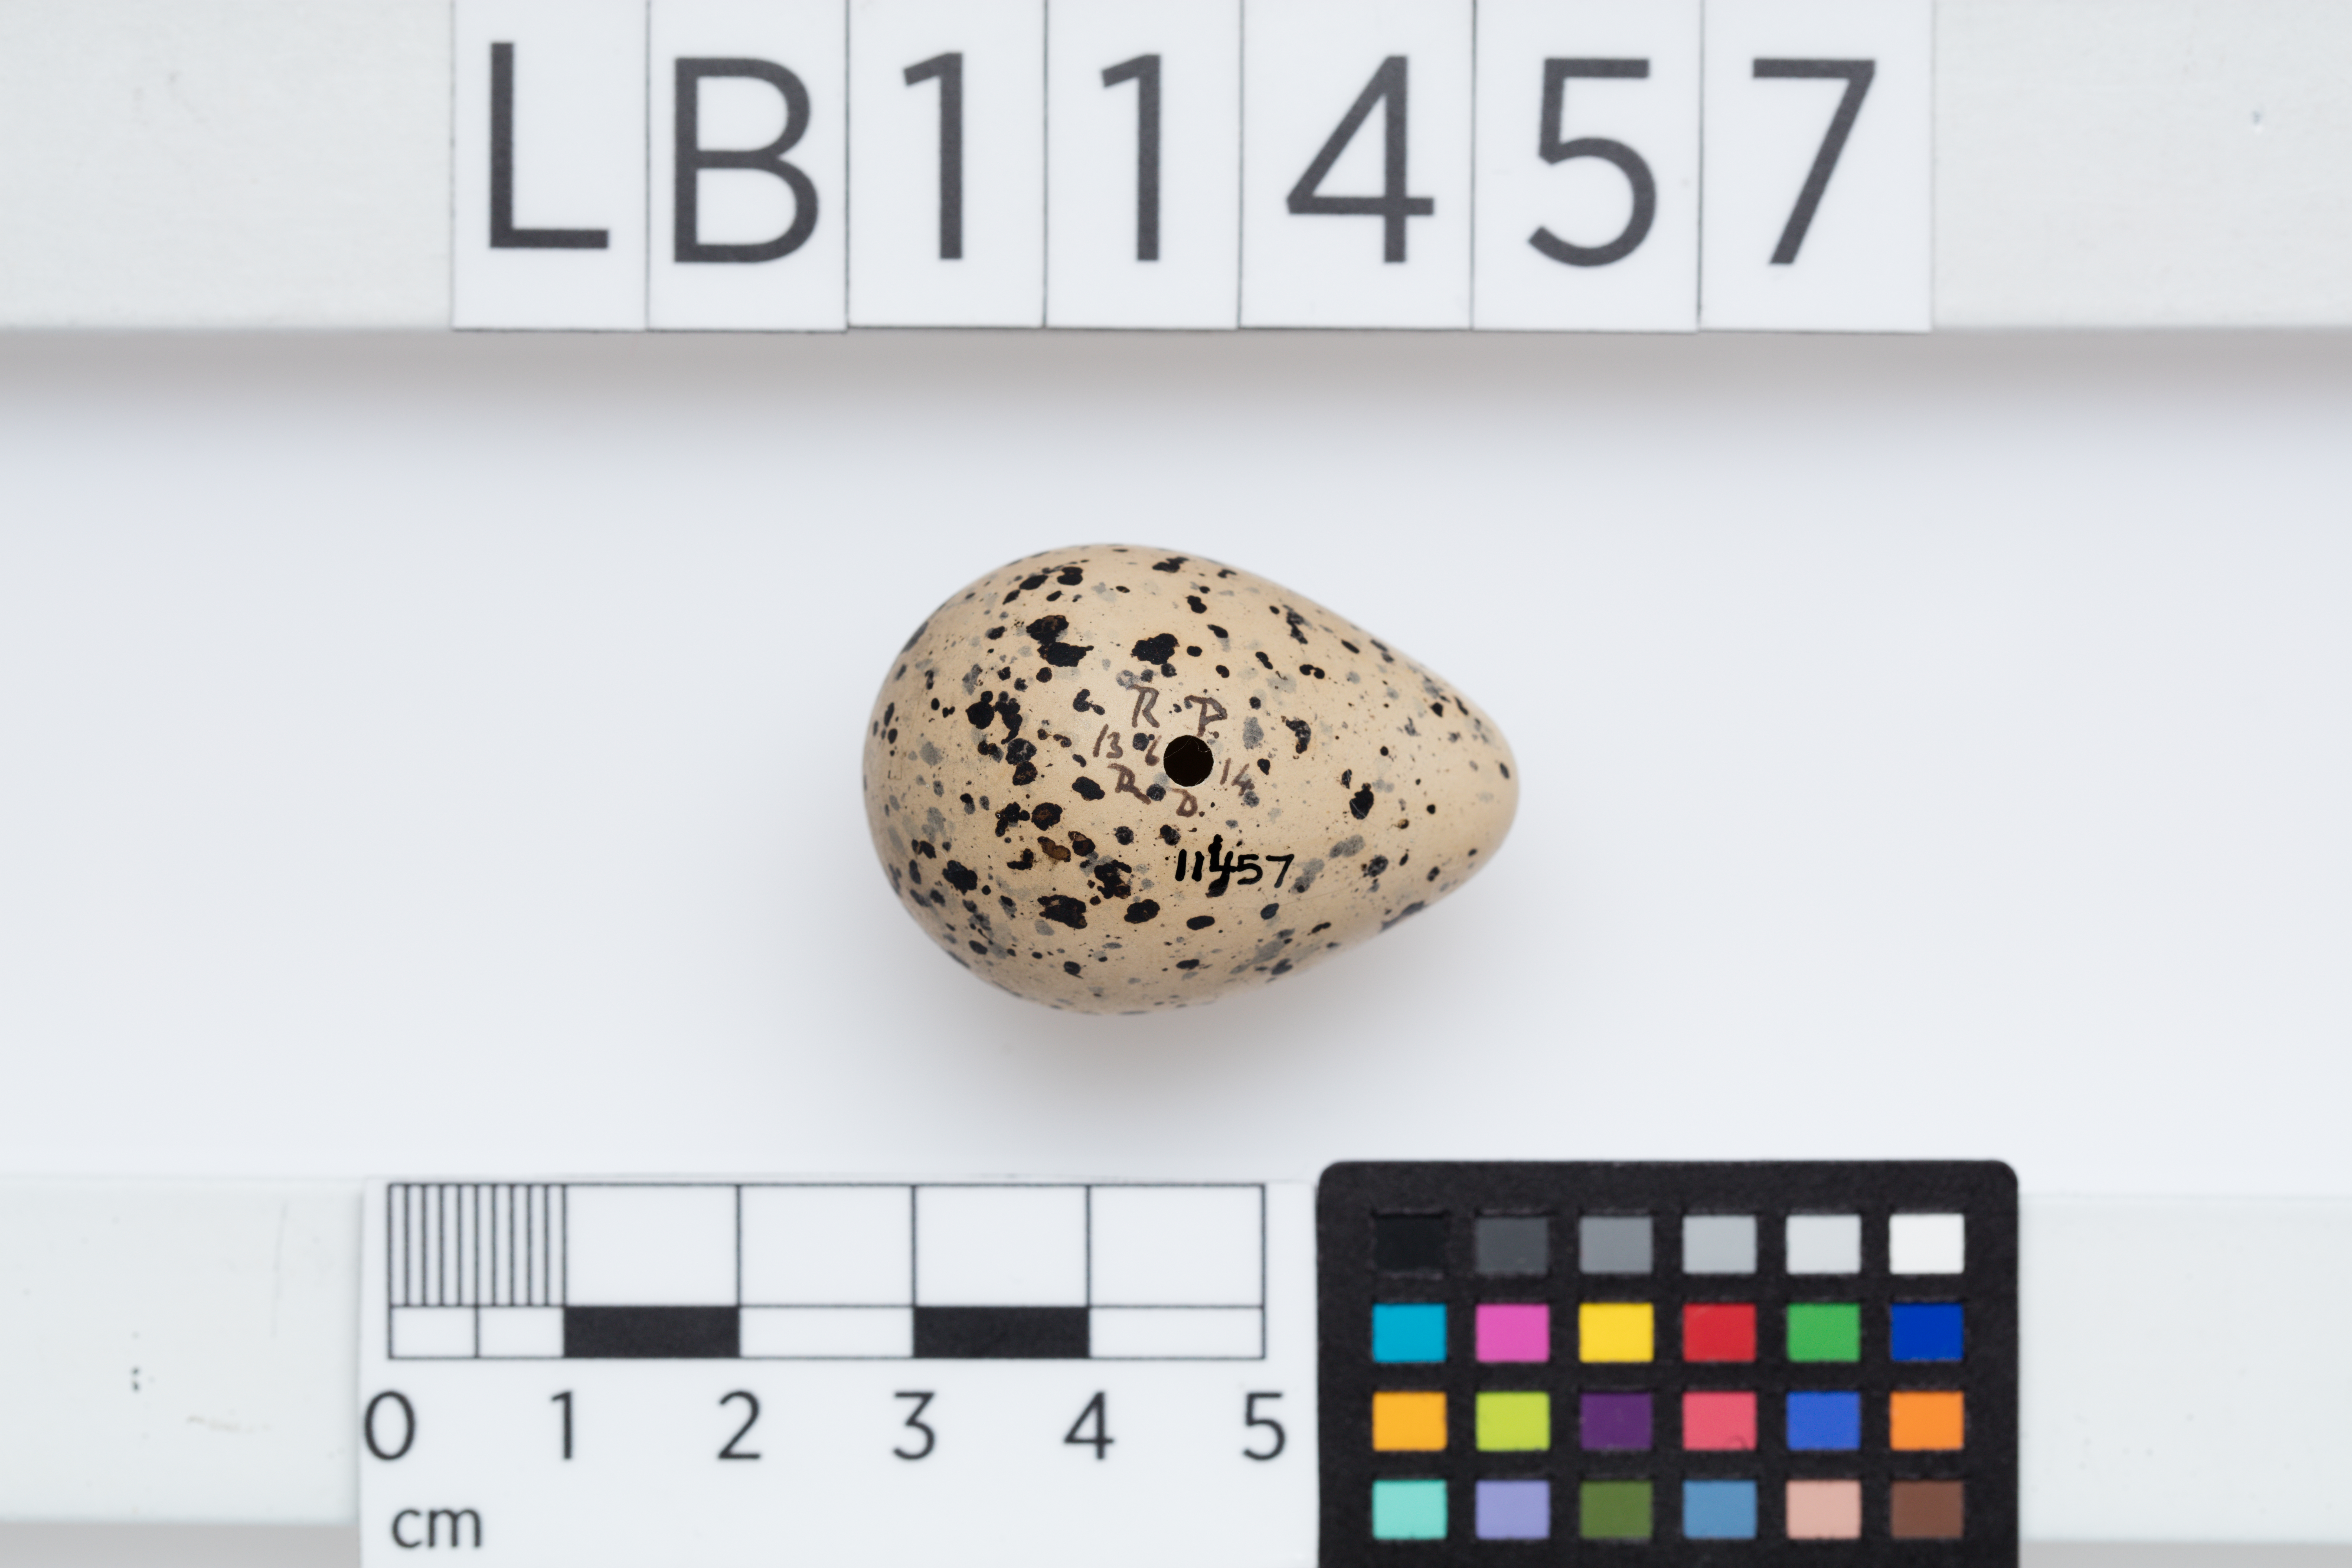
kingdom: Animalia
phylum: Chordata
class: Aves
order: Charadriiformes
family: Charadriidae
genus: Charadrius
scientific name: Charadrius hiaticula
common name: Common ringed plover
